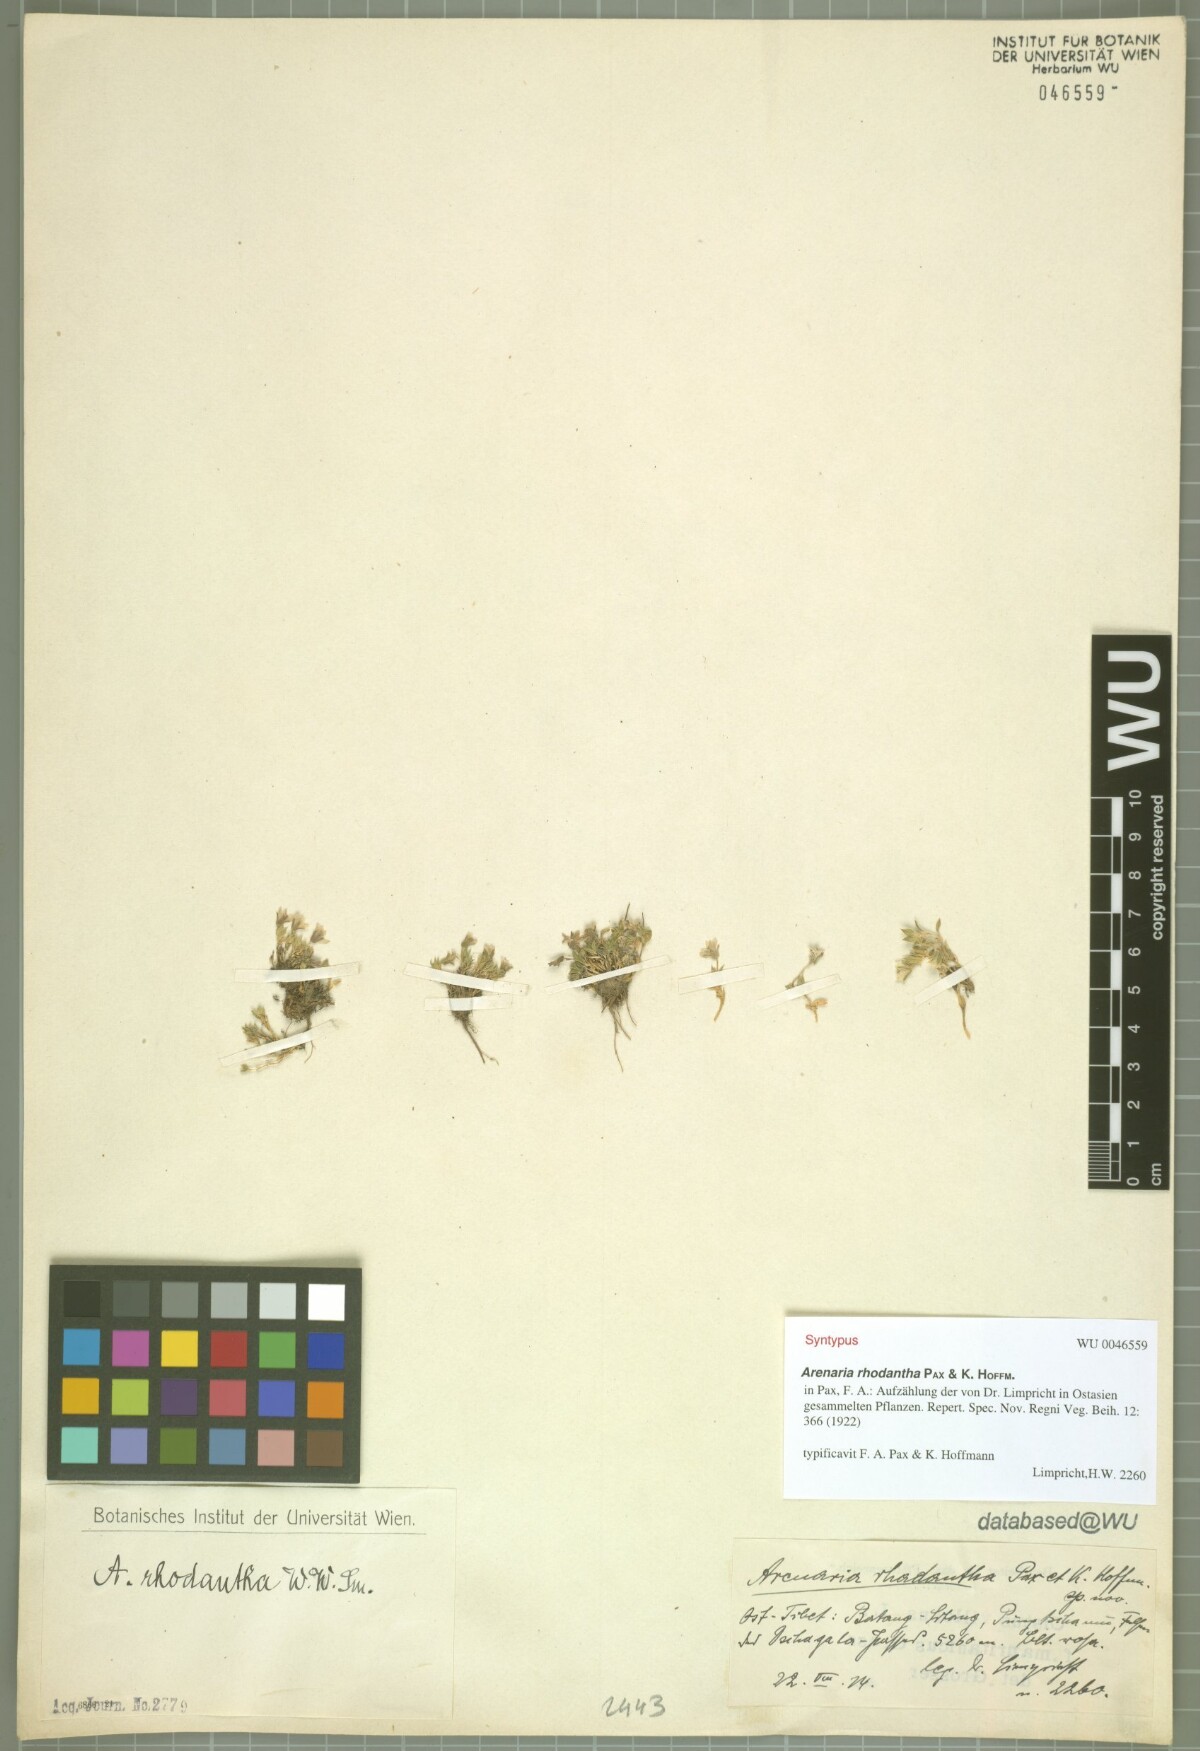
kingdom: Plantae
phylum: Tracheophyta
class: Magnoliopsida
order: Caryophyllales
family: Caryophyllaceae
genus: Shivparvatia
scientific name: Shivparvatia rhodantha
